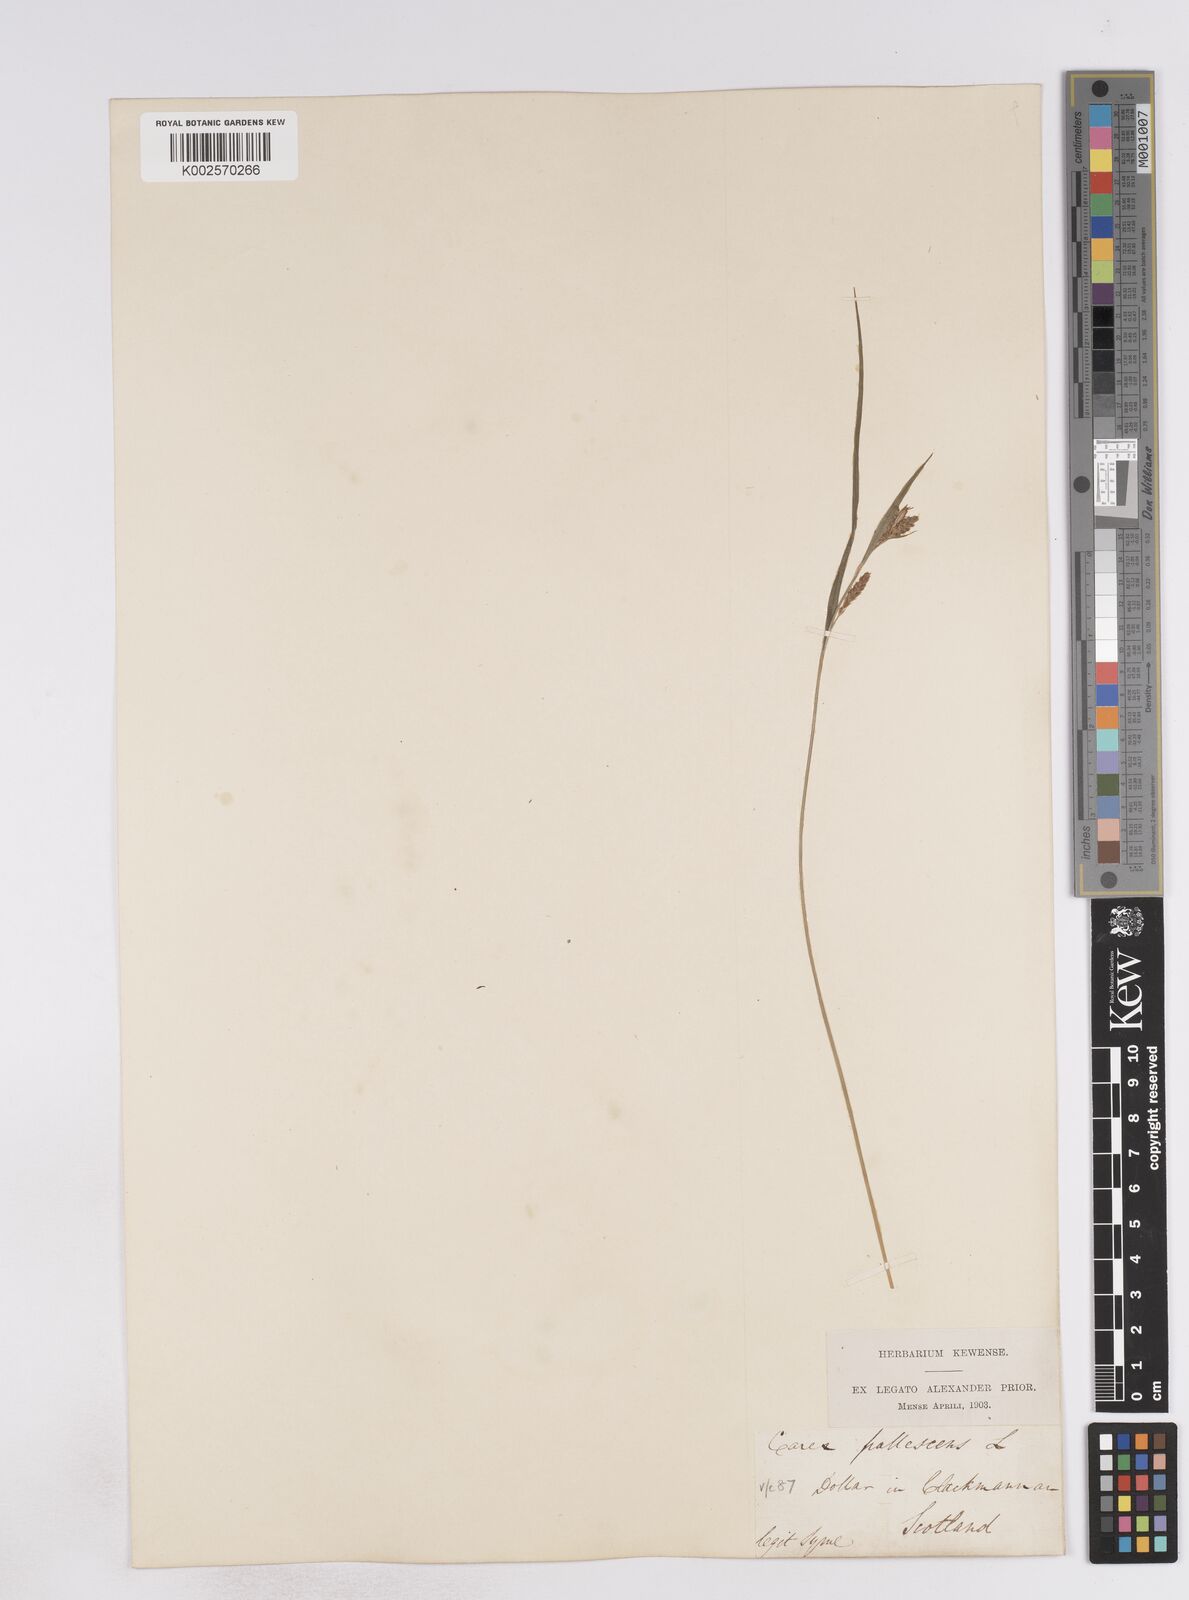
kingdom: Plantae
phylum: Tracheophyta
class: Liliopsida
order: Poales
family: Cyperaceae
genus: Carex
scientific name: Carex pallescens
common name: Pale sedge
